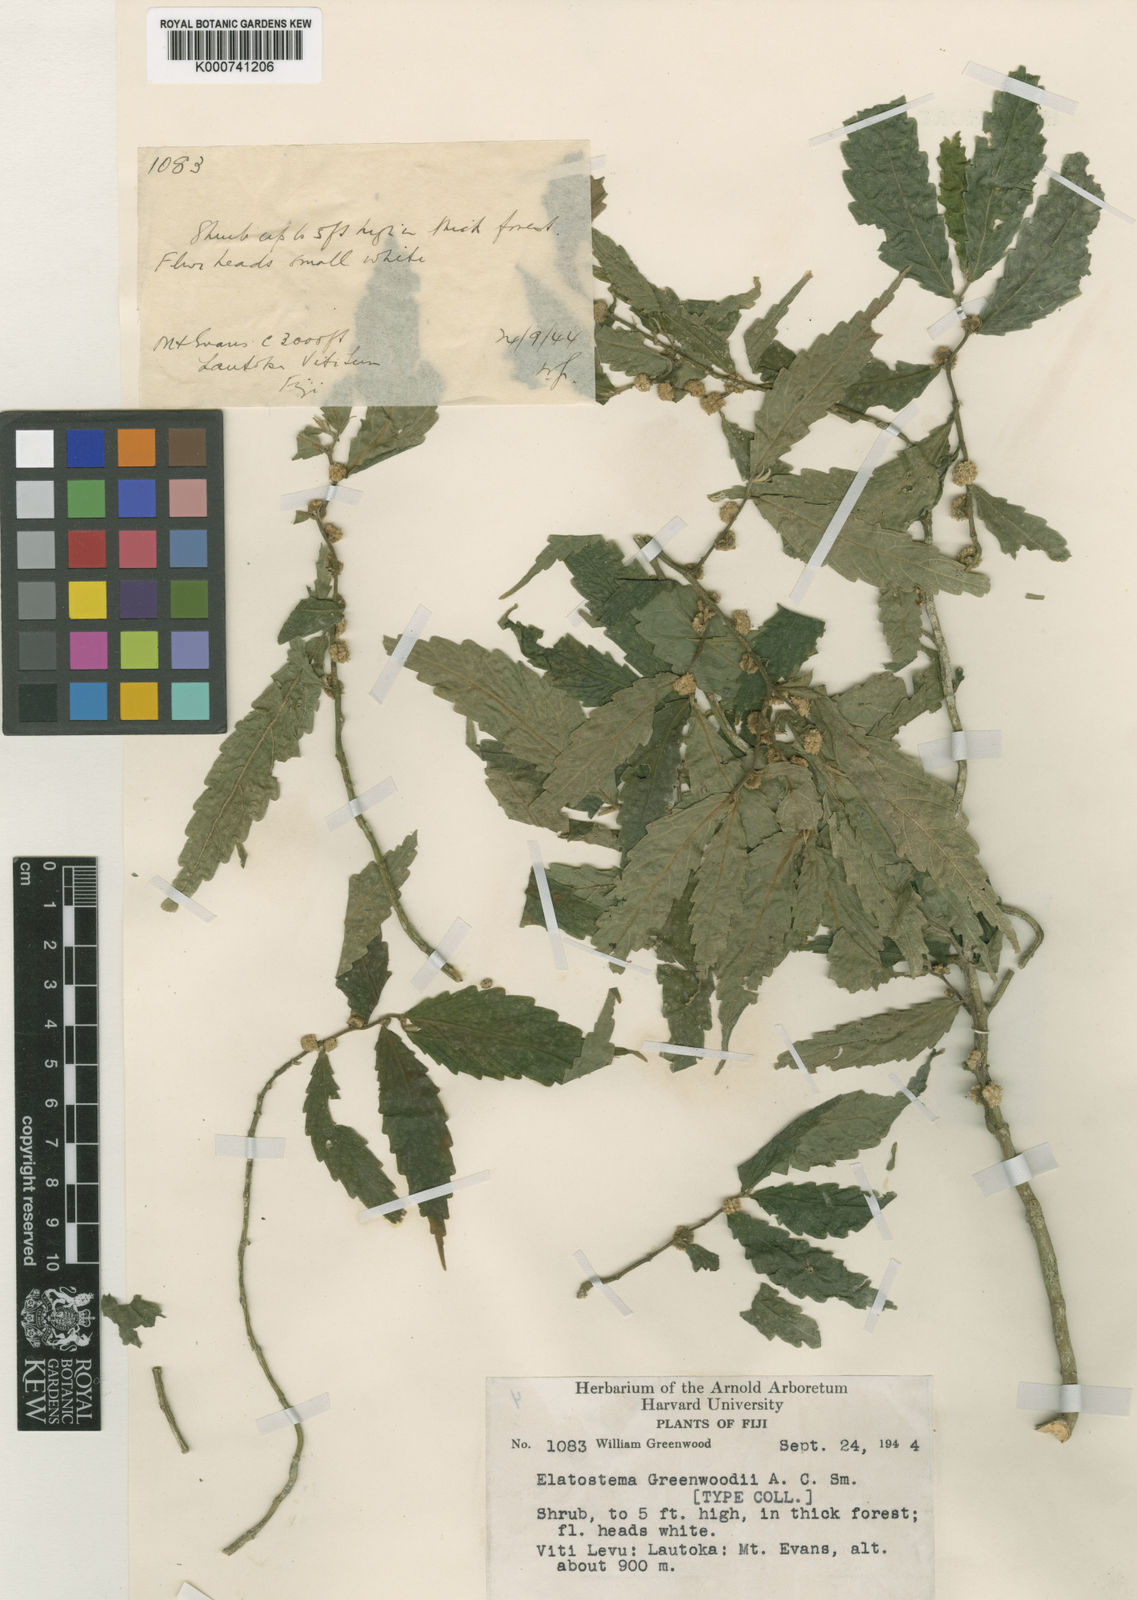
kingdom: Plantae
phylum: Tracheophyta
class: Magnoliopsida
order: Rosales
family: Urticaceae
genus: Elatostema
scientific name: Elatostema greenwoodii
